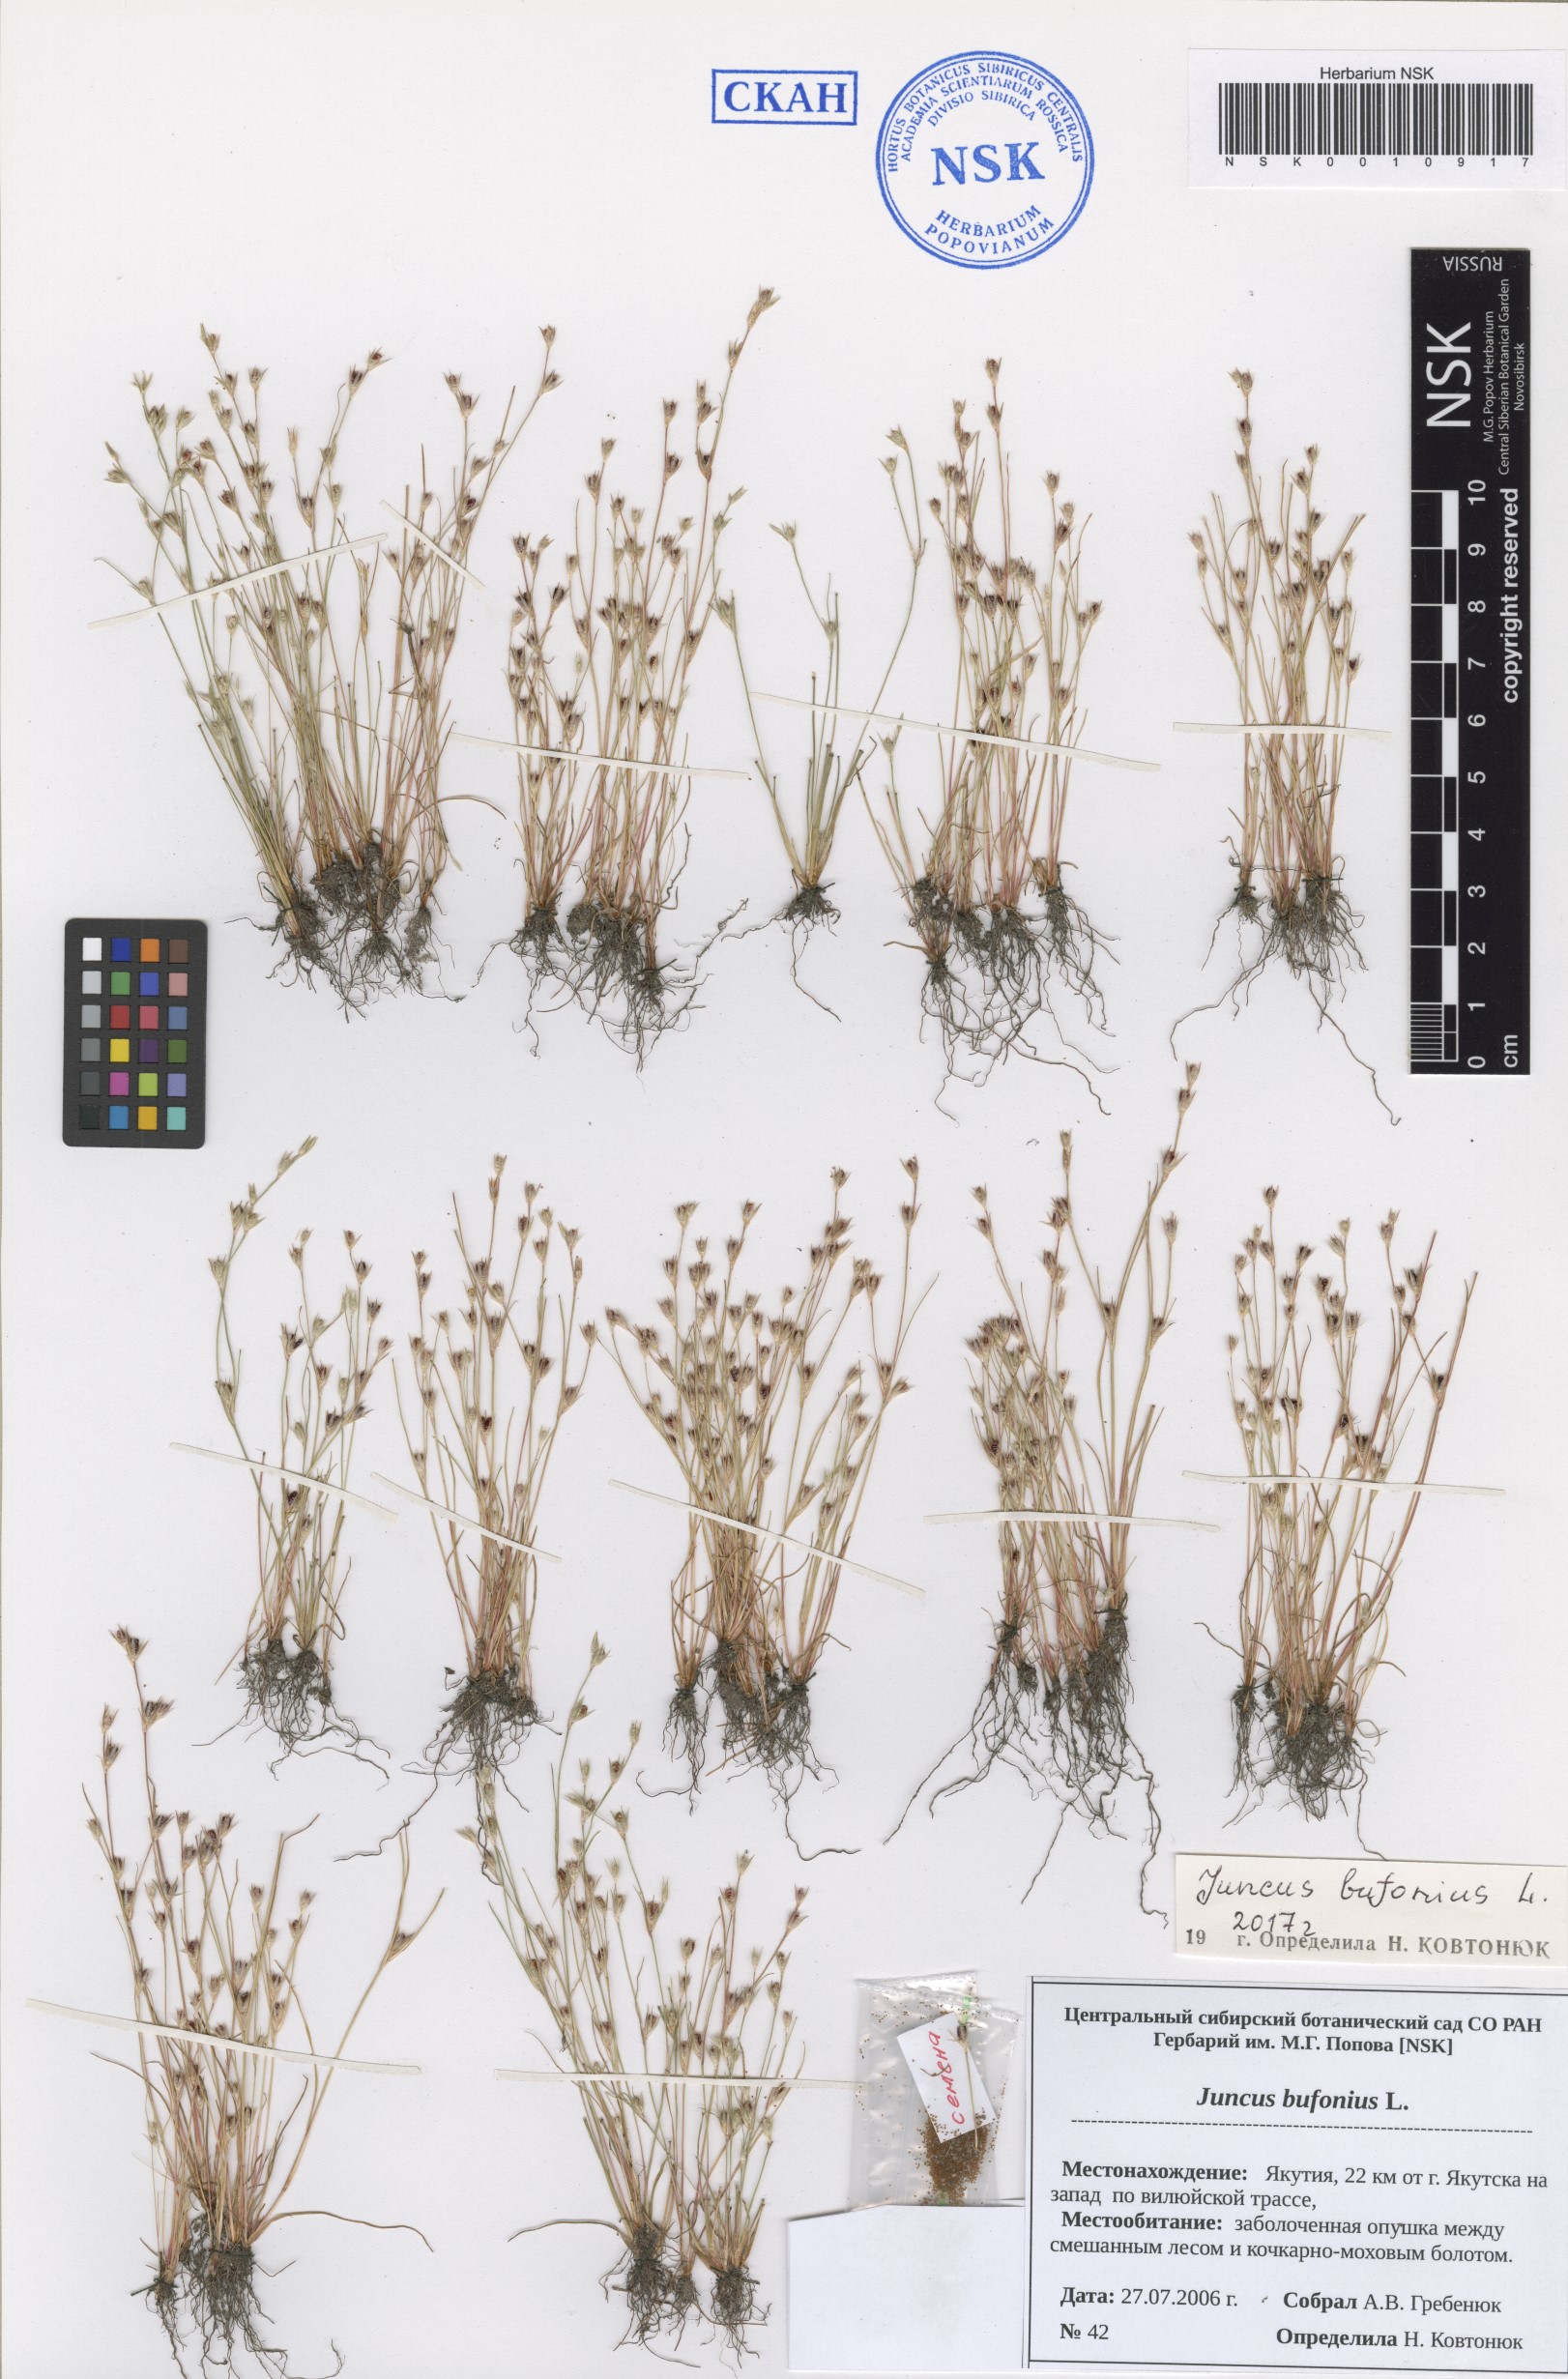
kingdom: Plantae
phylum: Tracheophyta
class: Liliopsida
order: Poales
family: Juncaceae
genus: Juncus
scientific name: Juncus bufonius
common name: Toad rush
